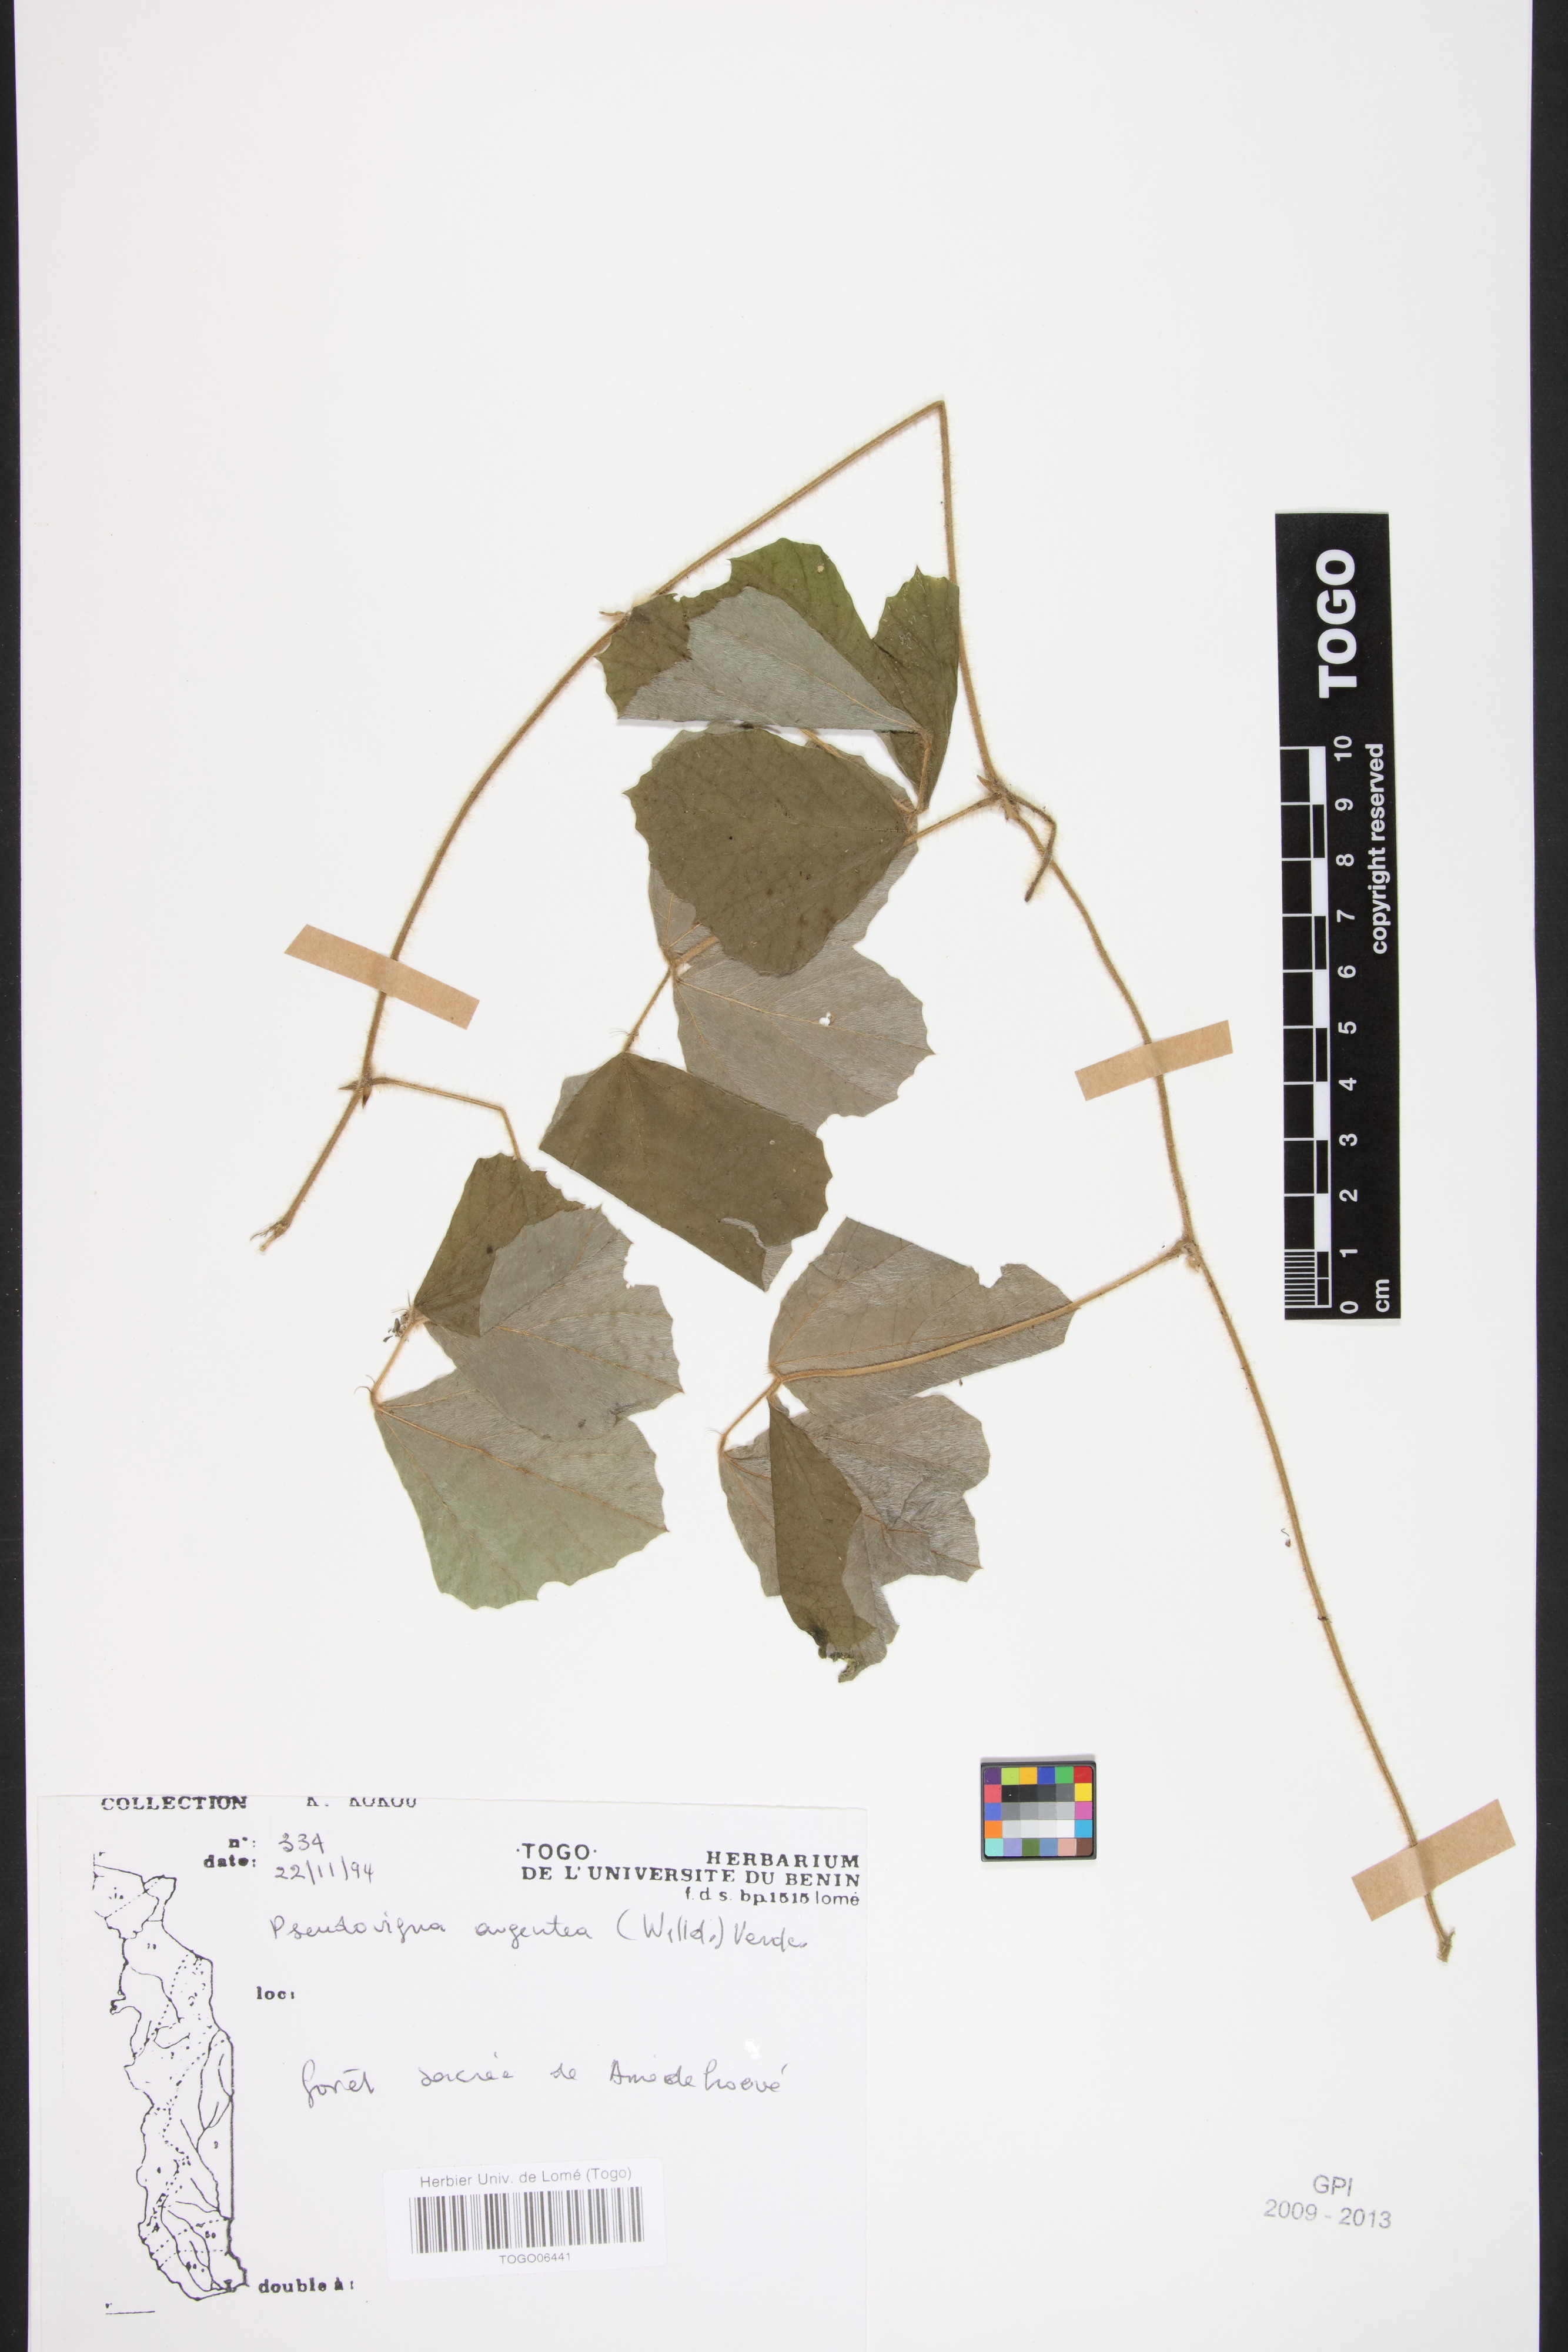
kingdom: Plantae
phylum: Tracheophyta
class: Magnoliopsida
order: Fabales
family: Fabaceae
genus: Pseudovigna
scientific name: Pseudovigna argentea
